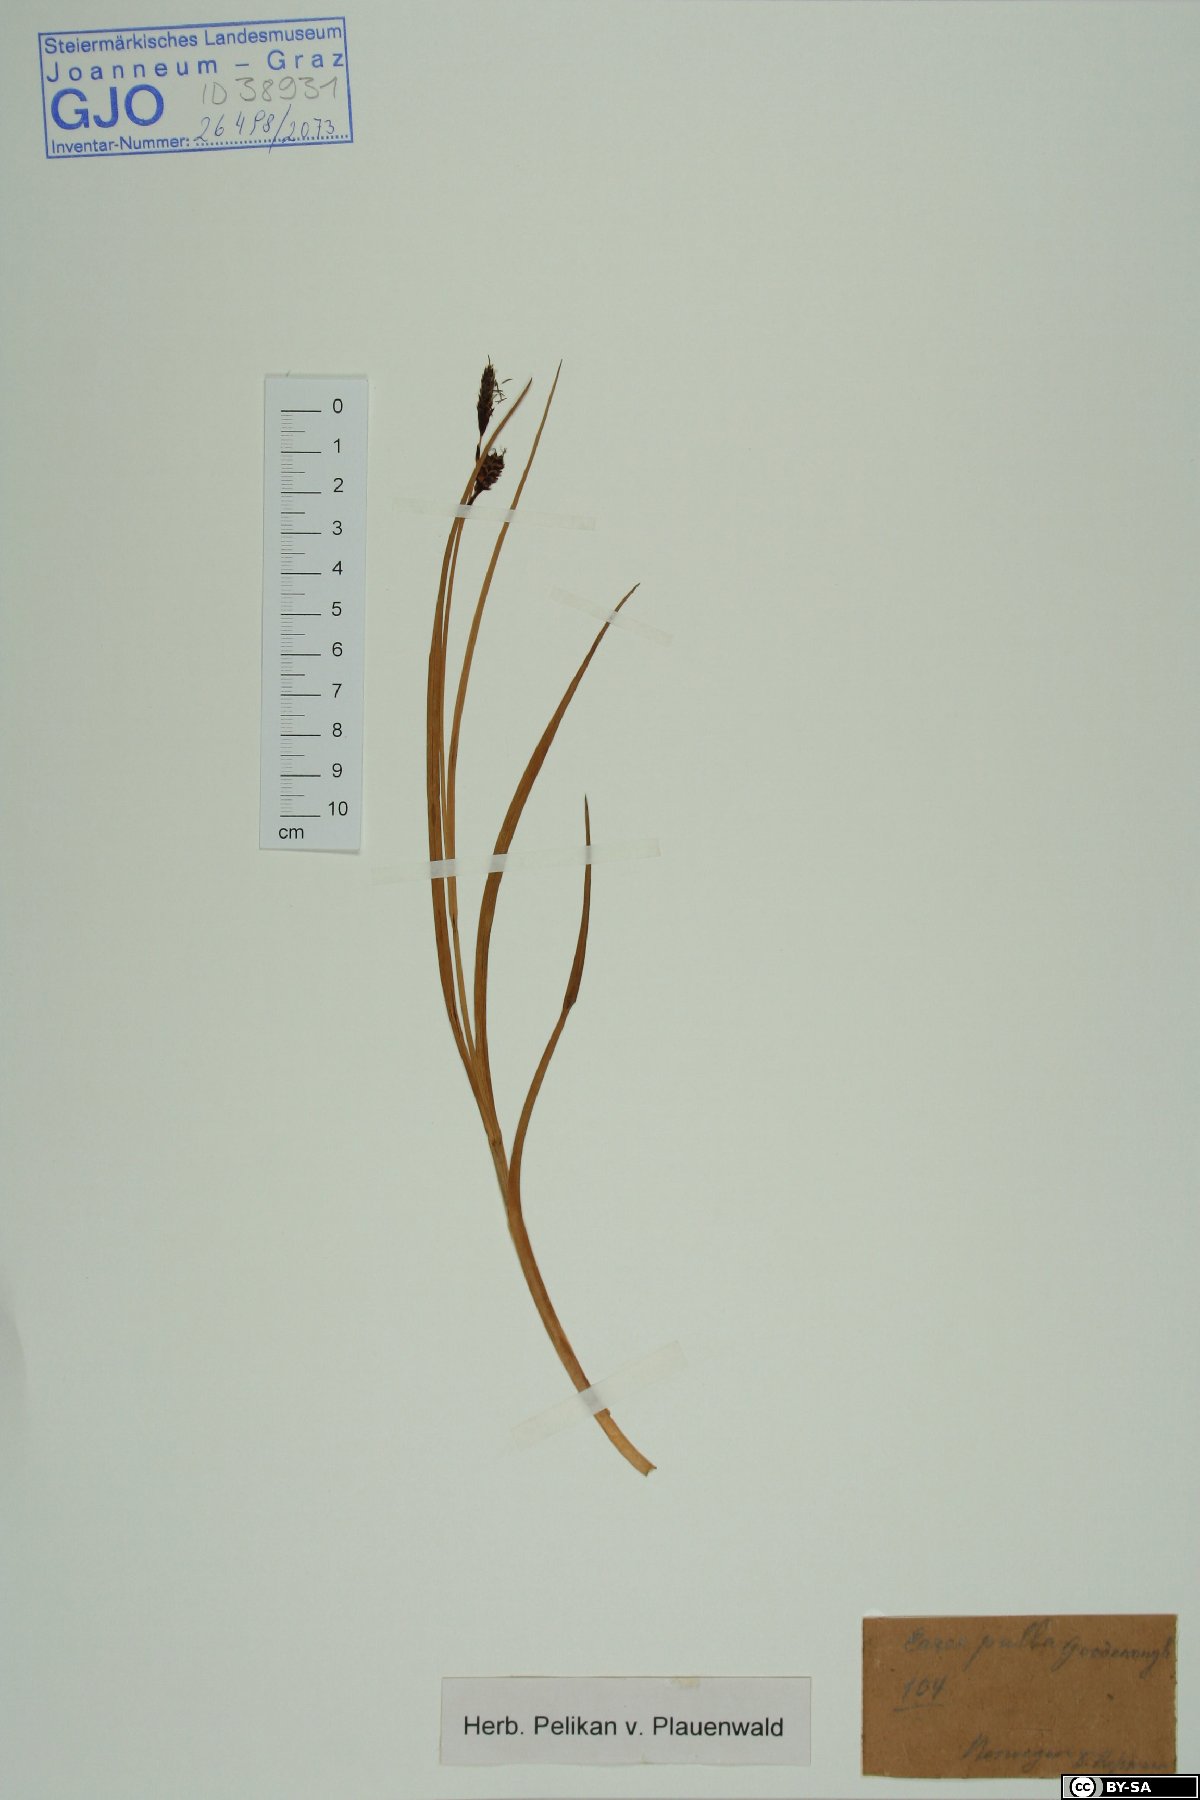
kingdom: Plantae
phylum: Tracheophyta
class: Liliopsida
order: Poales
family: Cyperaceae
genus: Carex
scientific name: Carex saxatilis
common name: Russet sedge
